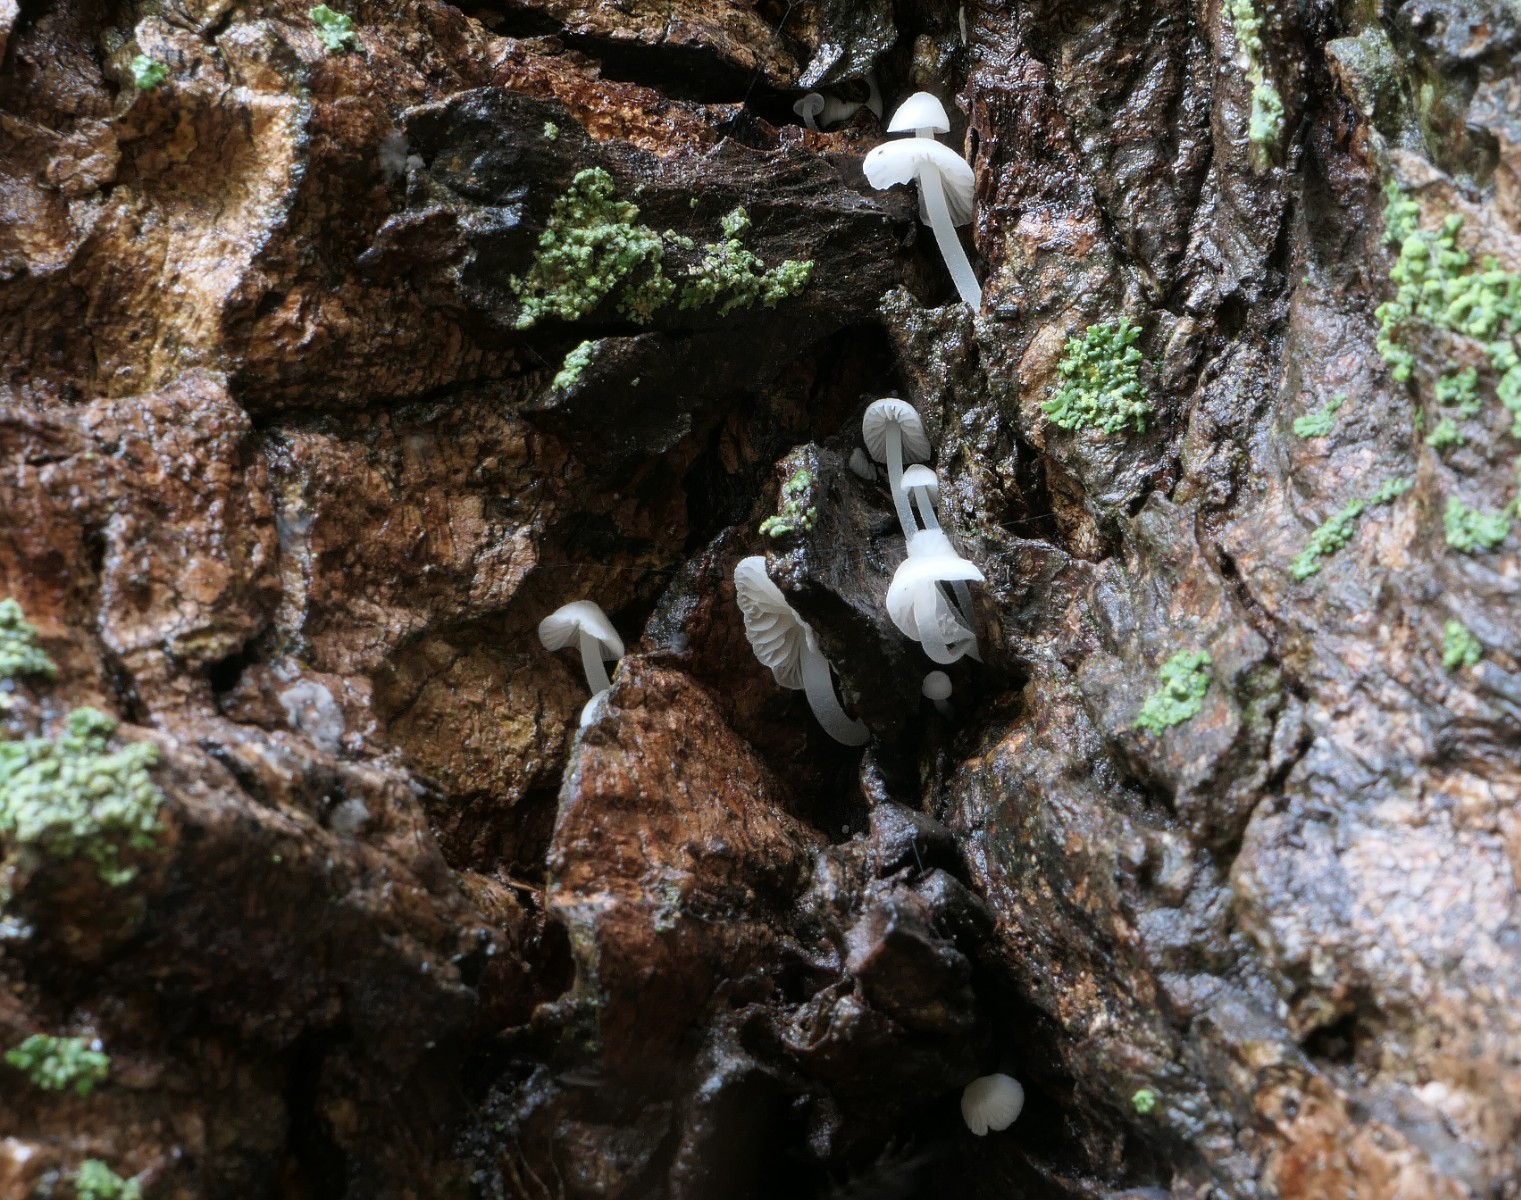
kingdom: Fungi
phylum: Basidiomycota
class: Agaricomycetes
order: Agaricales
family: Porotheleaceae
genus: Phloeomana
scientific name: Phloeomana minutula
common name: bleg huesvamp
